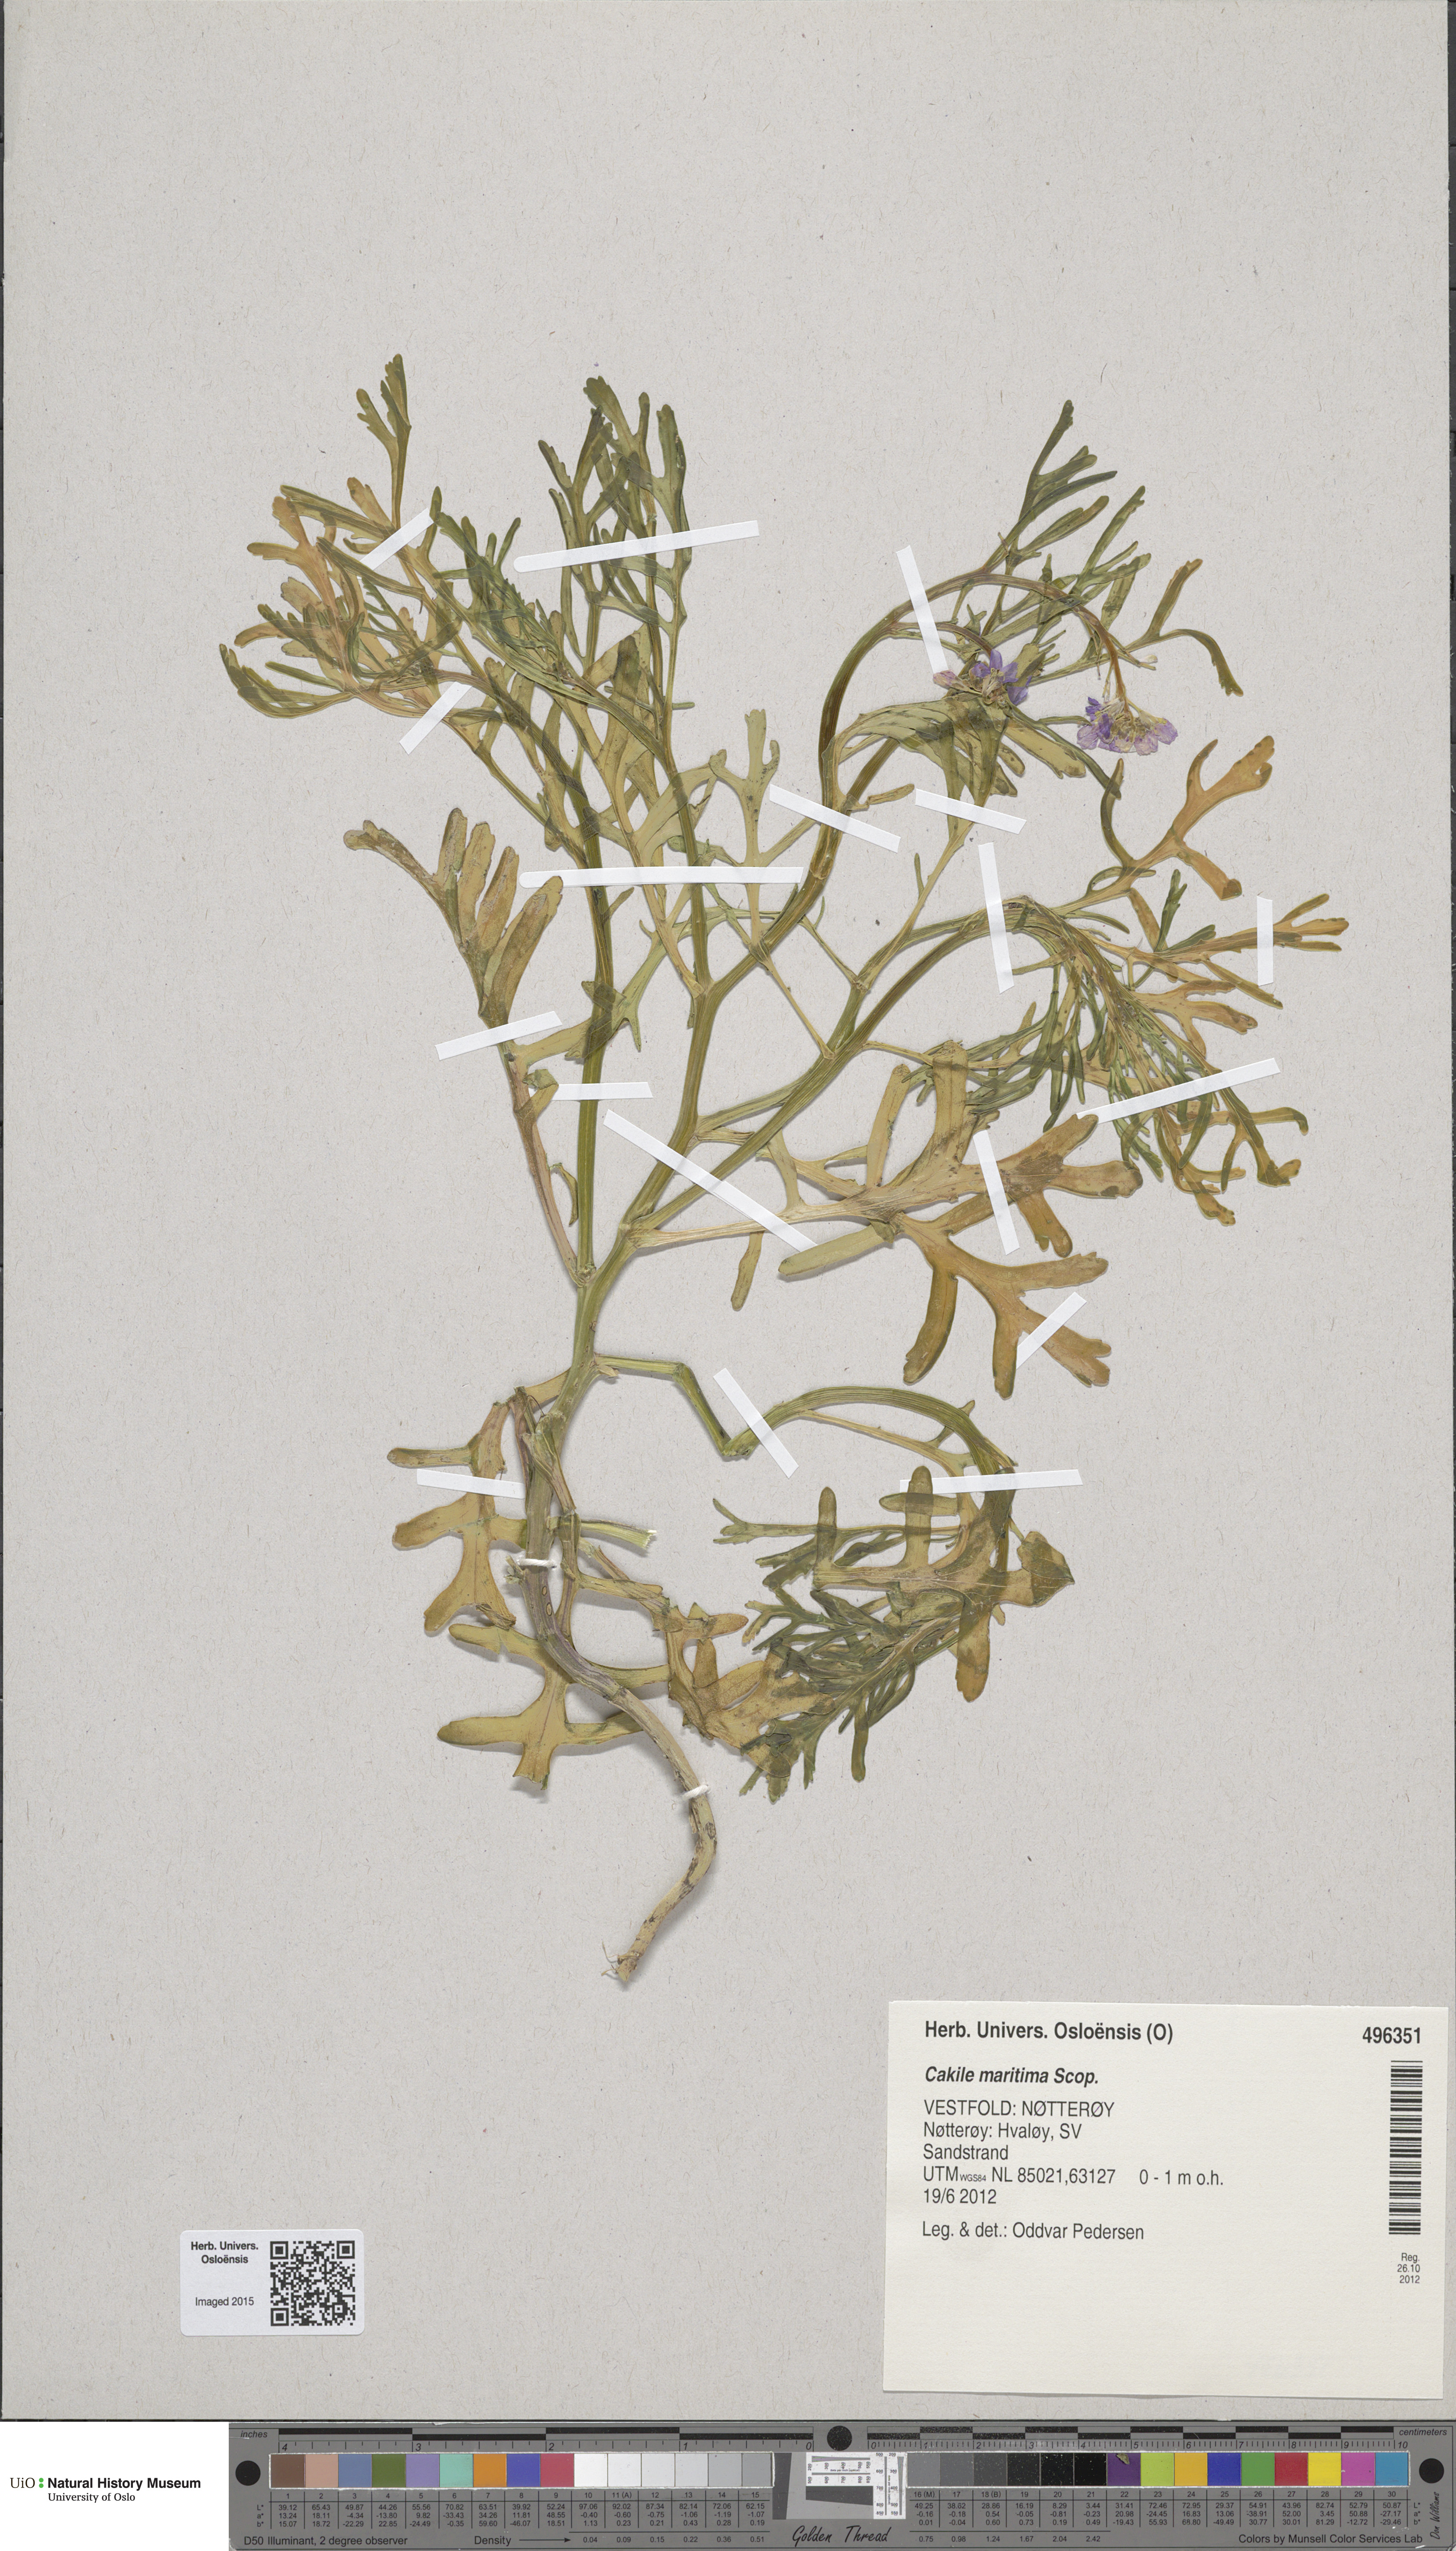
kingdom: Plantae
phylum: Tracheophyta
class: Magnoliopsida
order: Brassicales
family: Brassicaceae
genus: Cakile
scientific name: Cakile maritima
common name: Sea rocket
